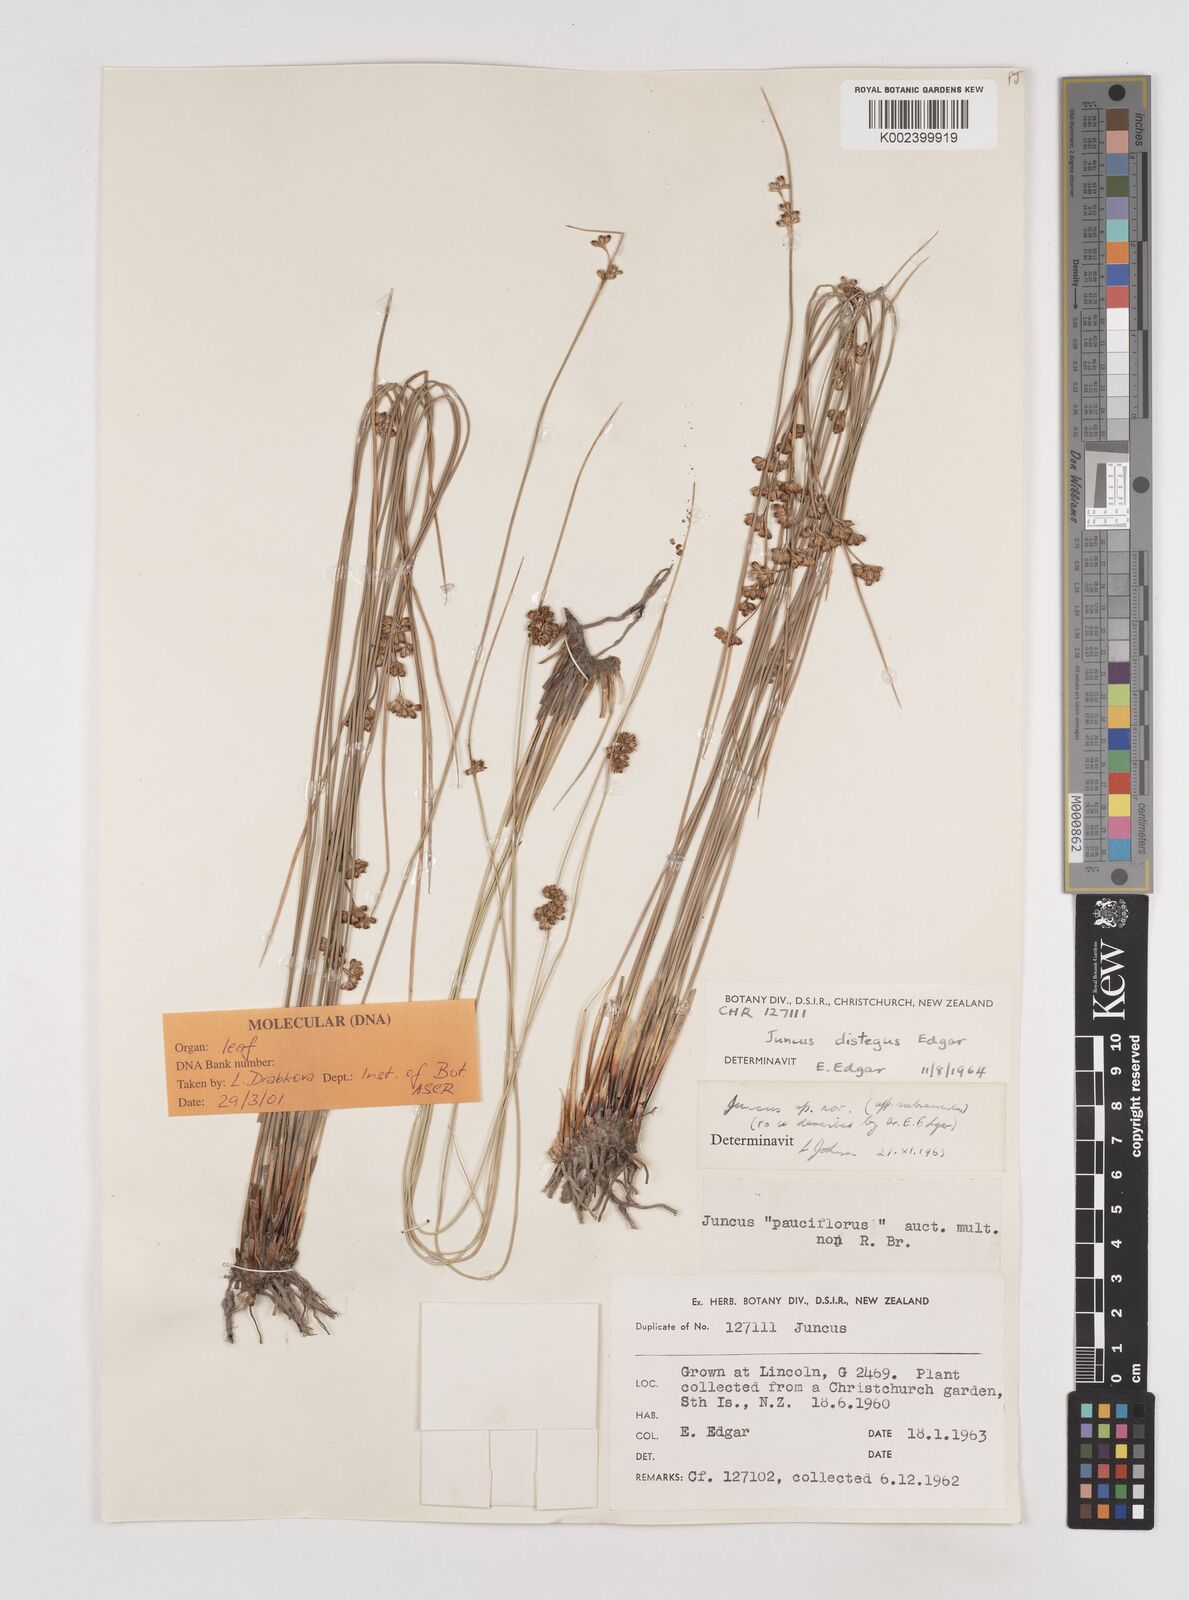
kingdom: Plantae
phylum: Tracheophyta
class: Liliopsida
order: Poales
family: Juncaceae
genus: Juncus
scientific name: Juncus distegus
